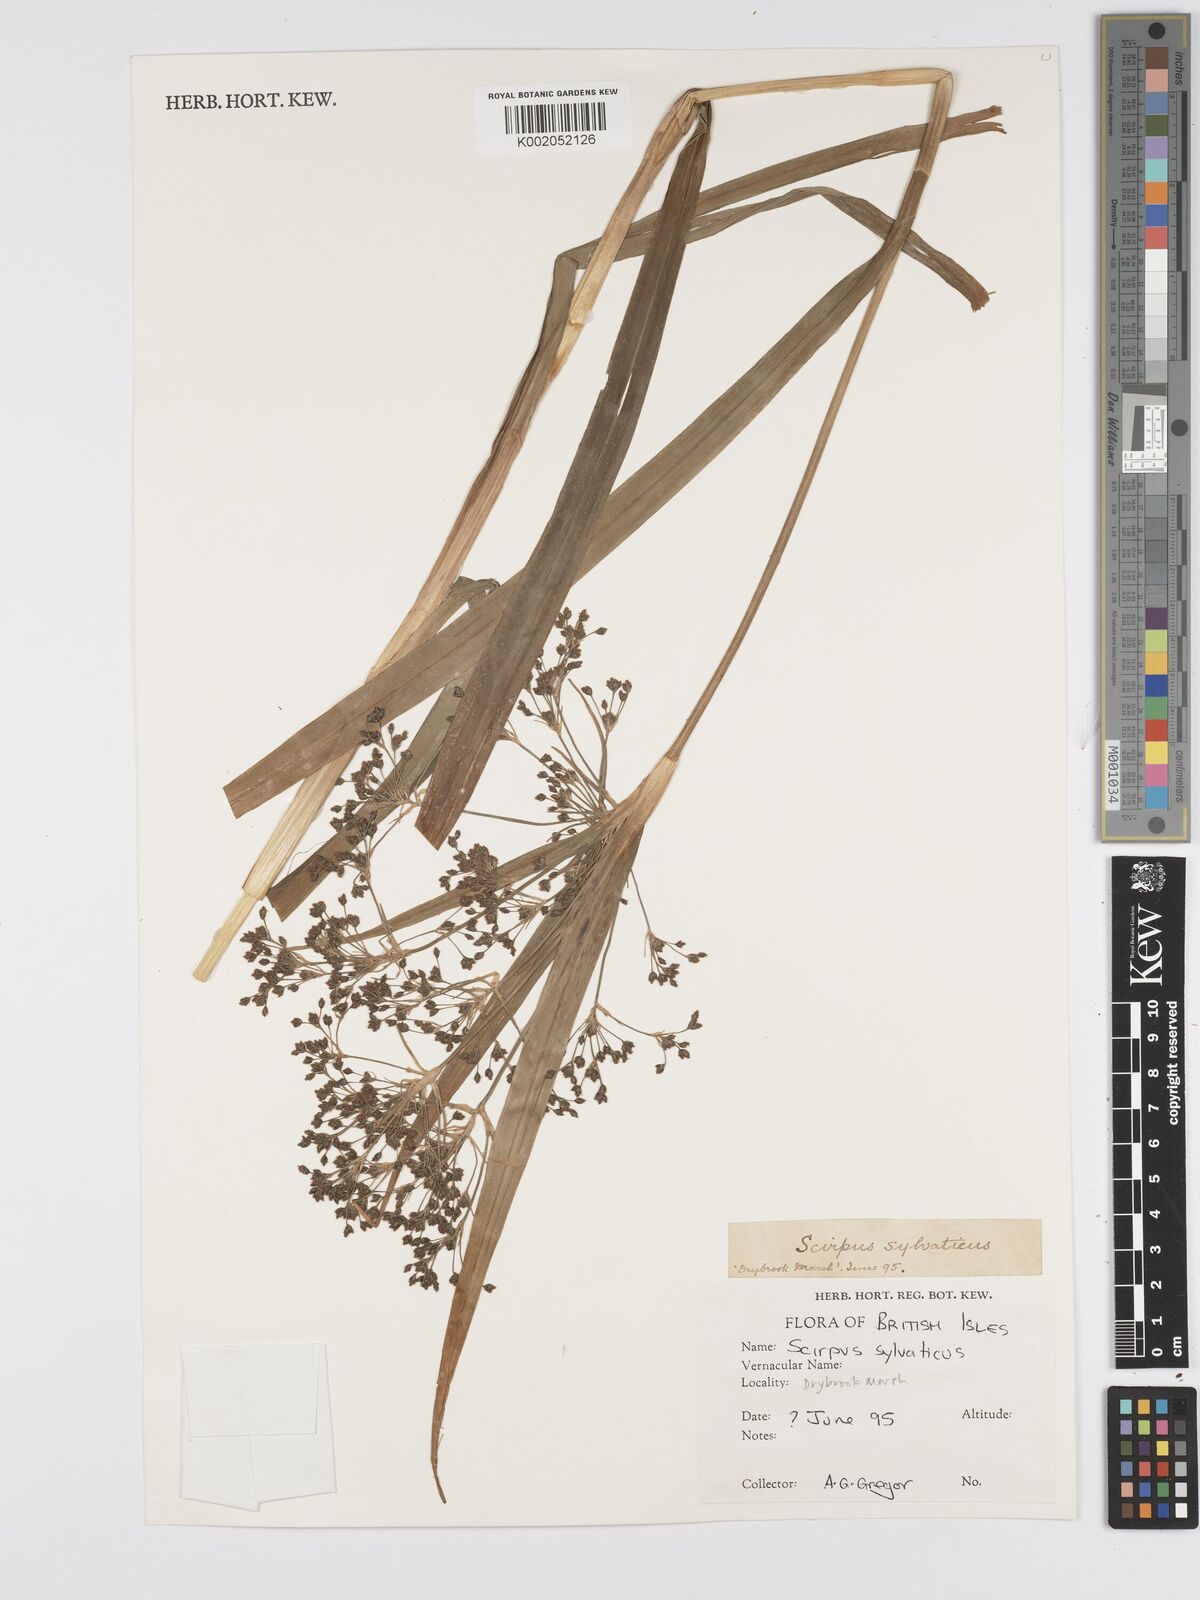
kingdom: Plantae
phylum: Tracheophyta
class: Liliopsida
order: Poales
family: Cyperaceae
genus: Scirpus
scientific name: Scirpus sylvaticus
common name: Wood club-rush
